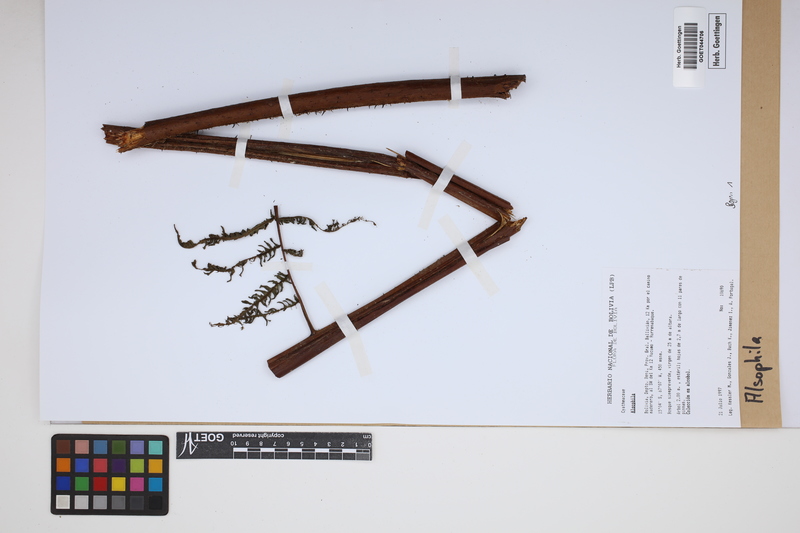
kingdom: Plantae
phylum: Tracheophyta
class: Polypodiopsida
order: Cyatheales
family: Cyatheaceae
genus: Alsophila
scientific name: Alsophila
